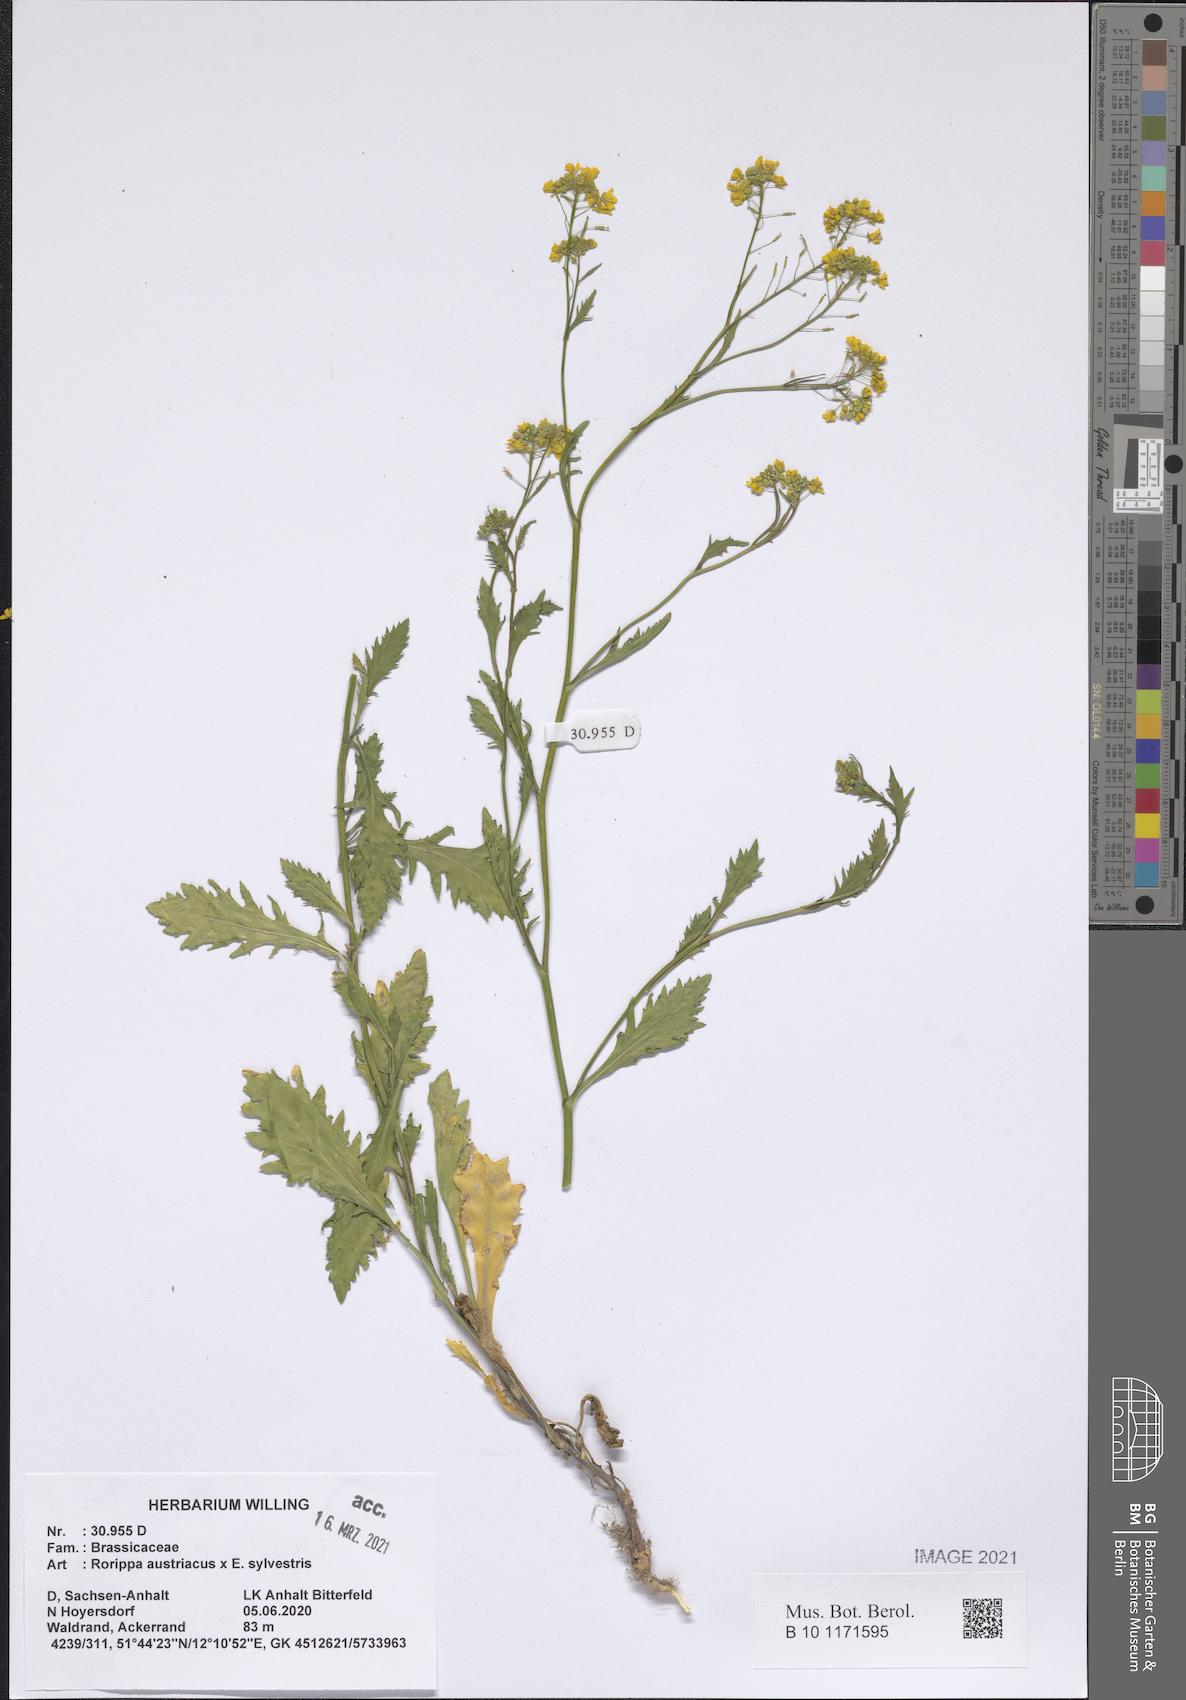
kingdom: Plantae
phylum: Tracheophyta
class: Magnoliopsida
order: Brassicales
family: Brassicaceae
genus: Rorippa
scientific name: Rorippa austriaca
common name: Austrian yellow-cress
